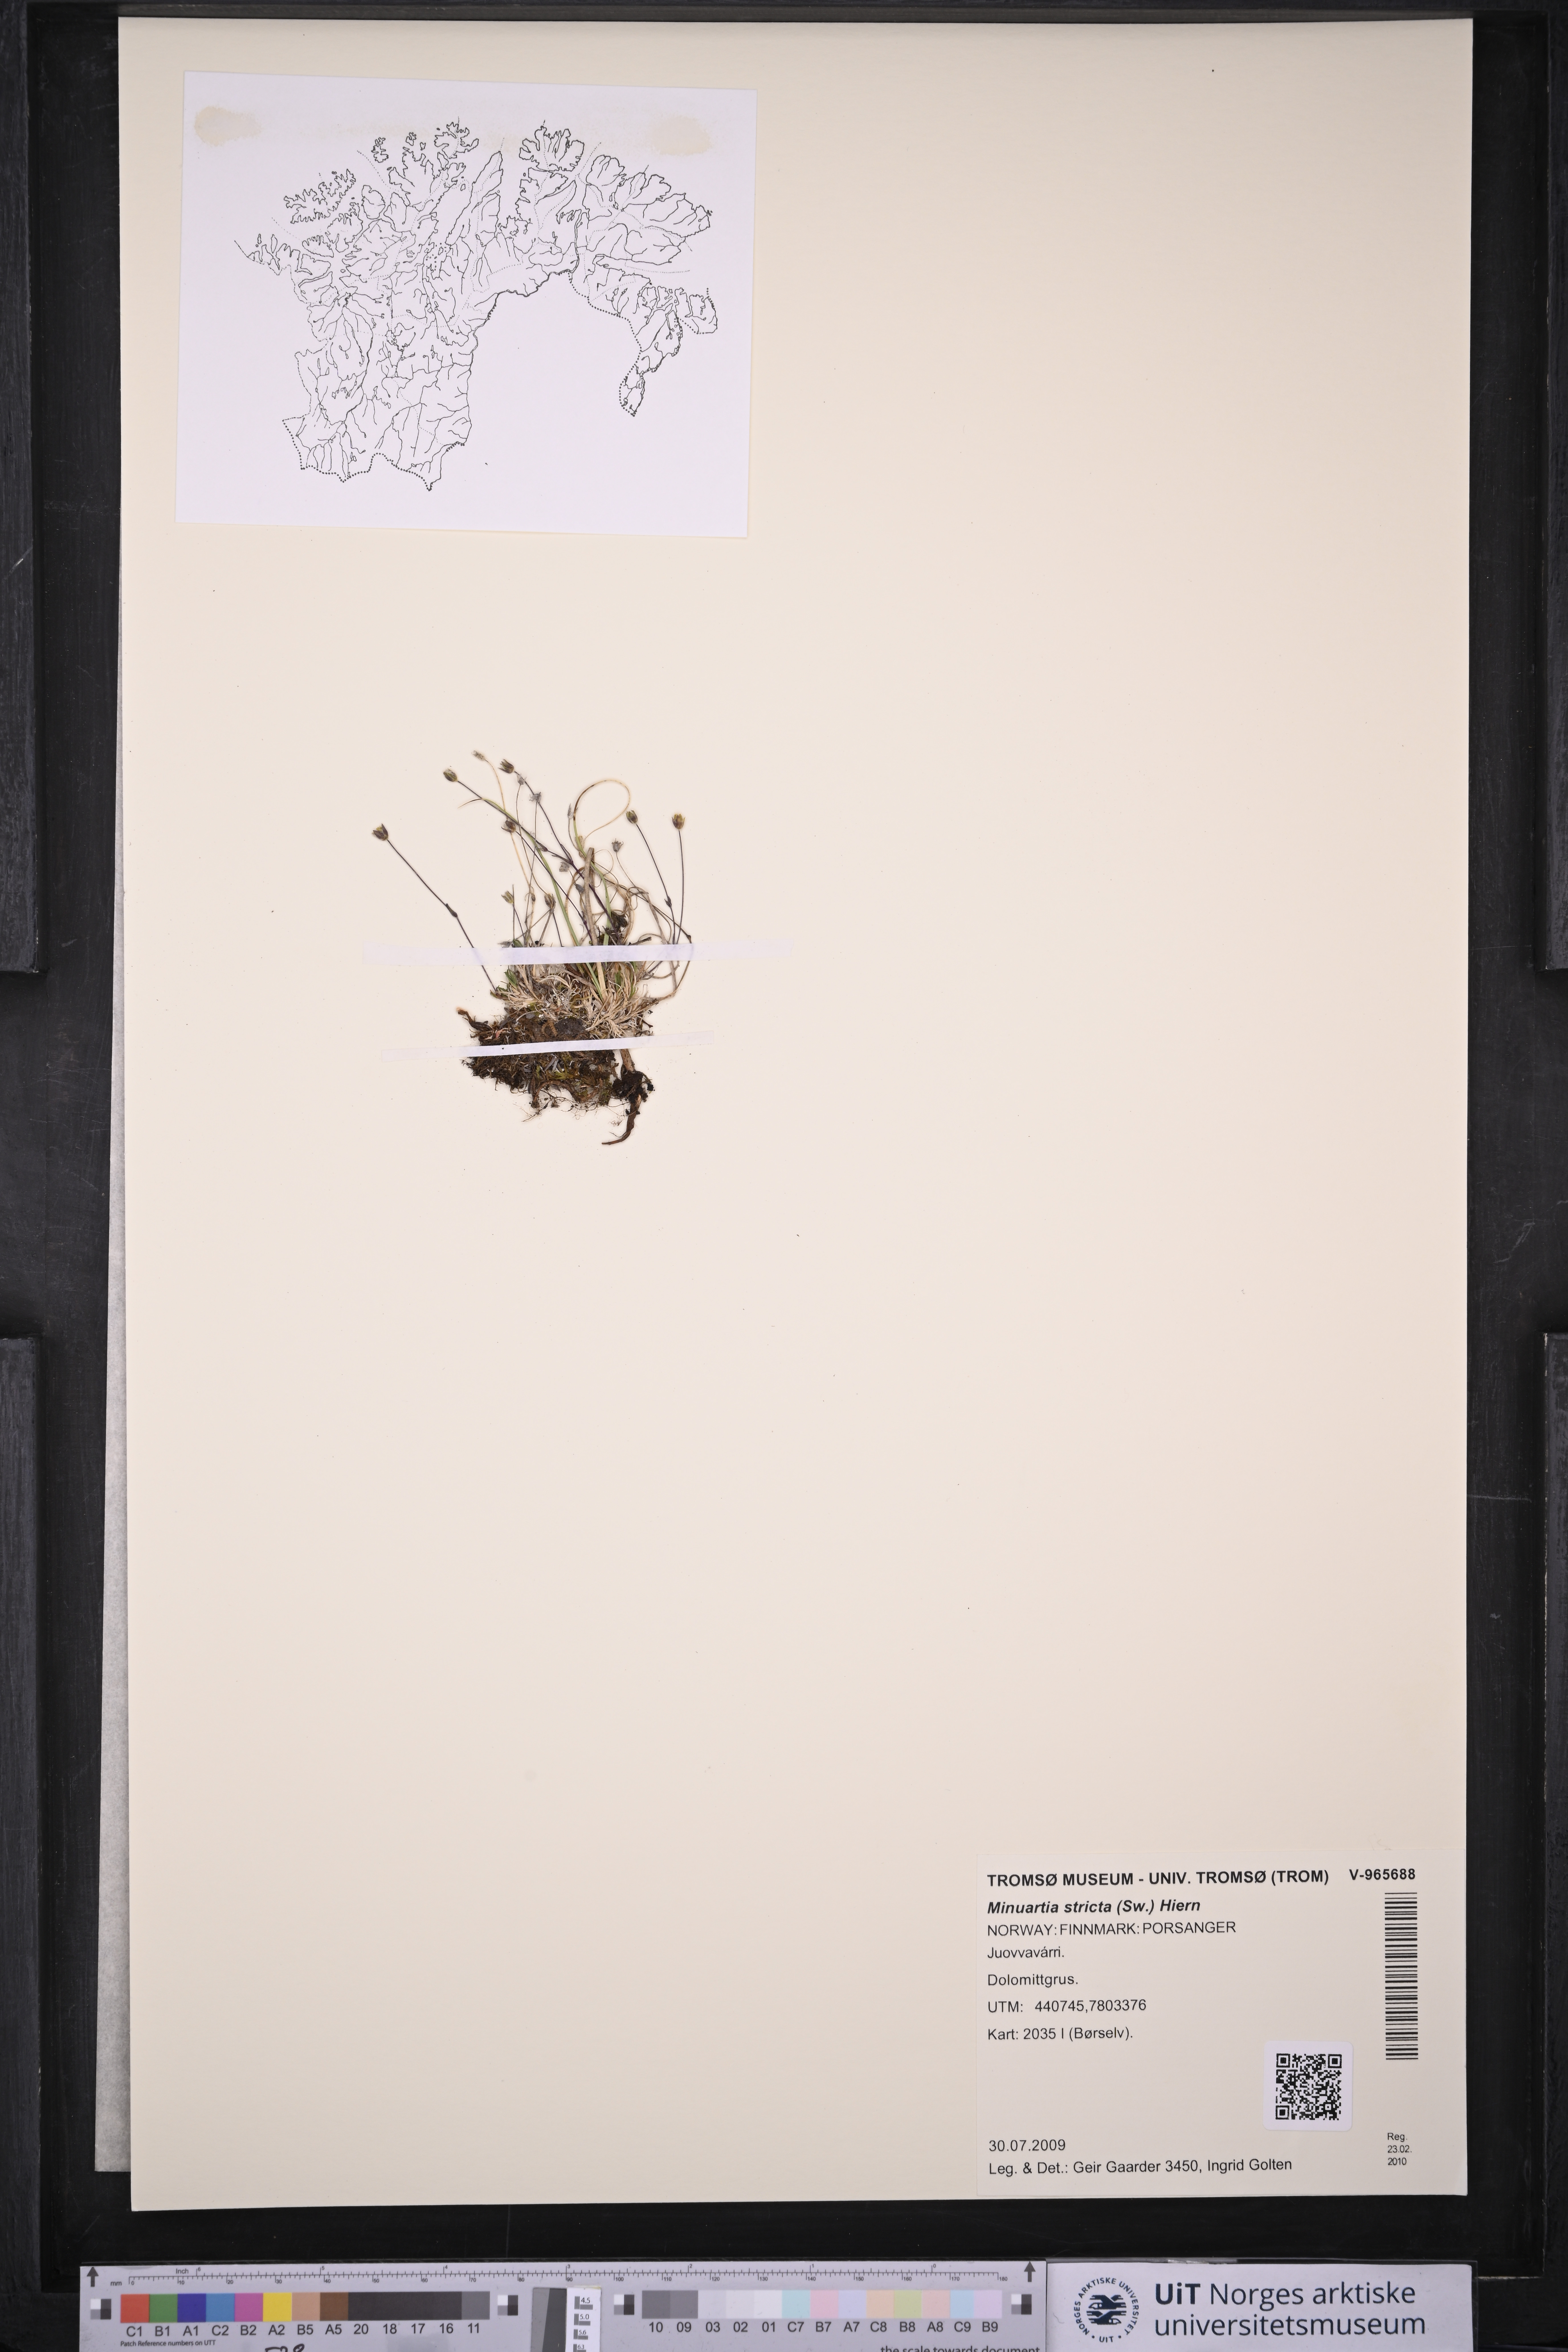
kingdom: Plantae
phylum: Tracheophyta
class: Magnoliopsida
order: Caryophyllales
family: Caryophyllaceae
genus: Sabulina
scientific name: Sabulina stricta
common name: Bog sandwort
